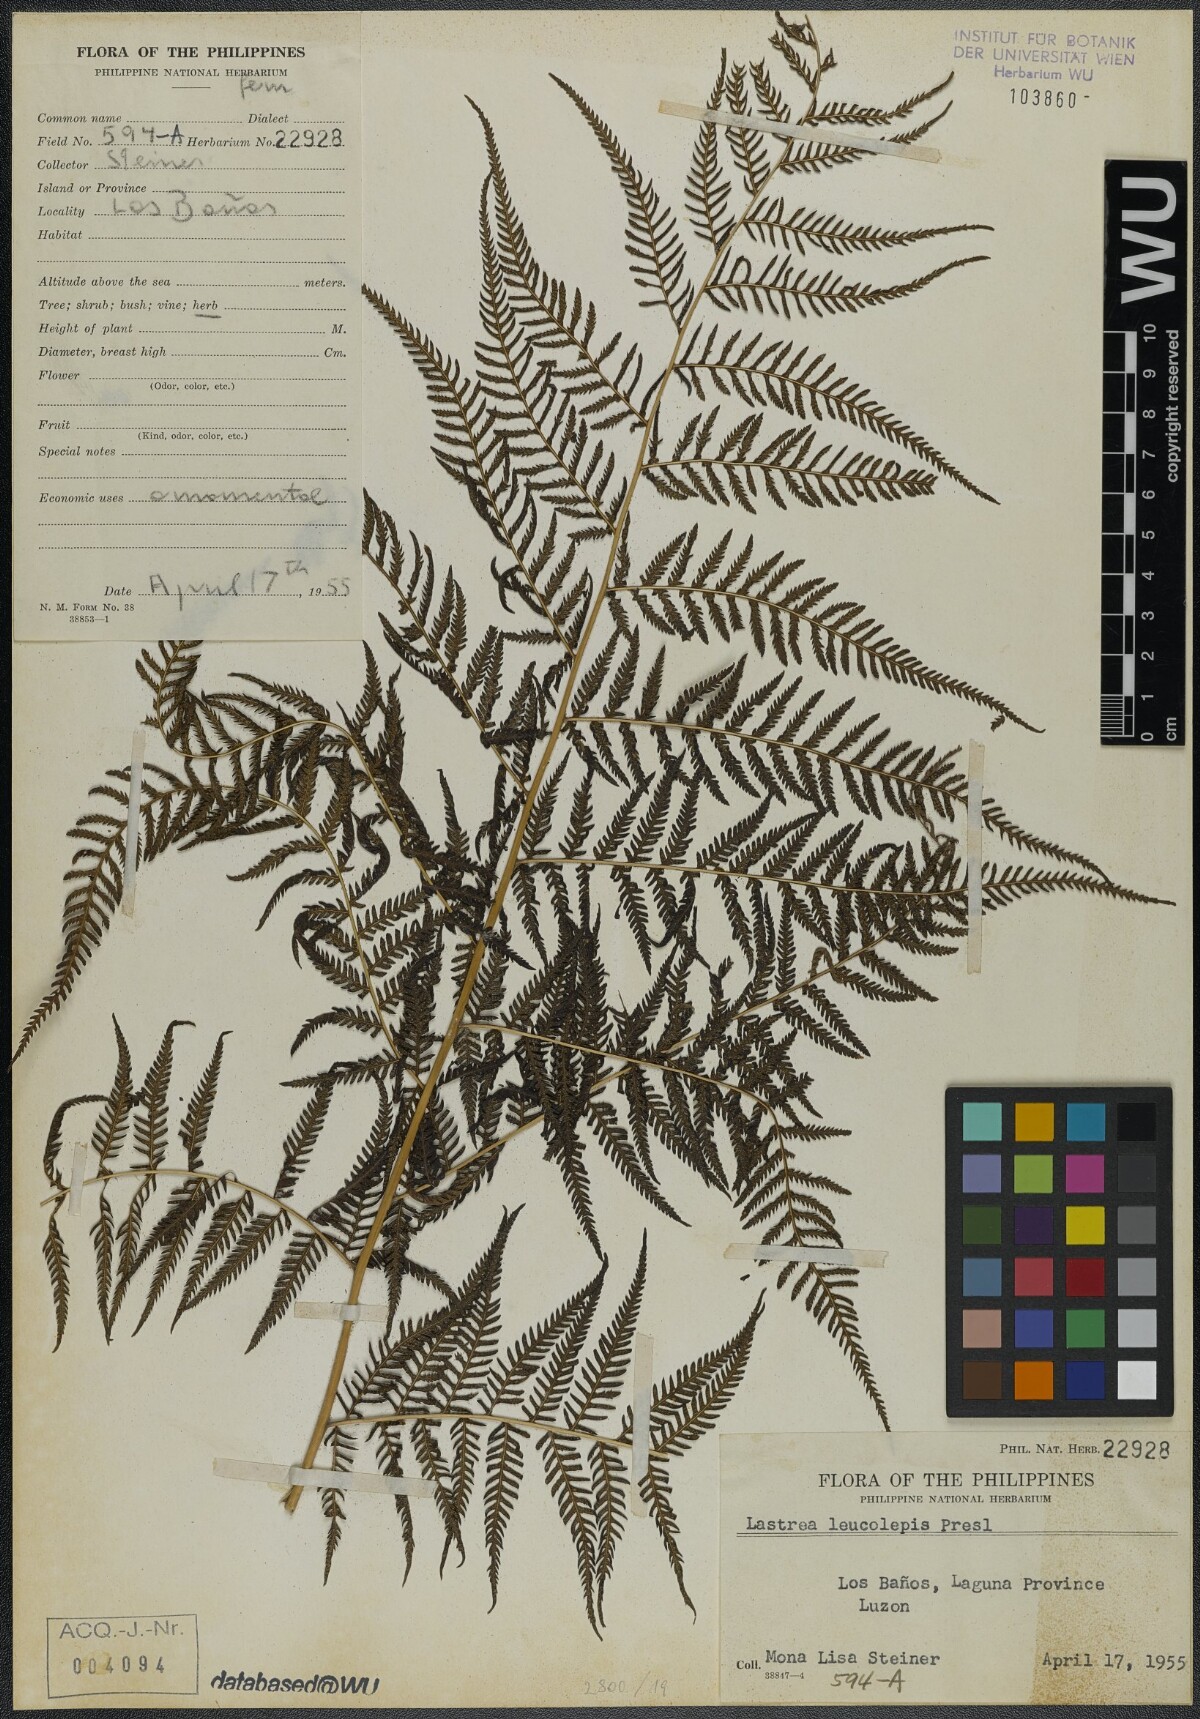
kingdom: Plantae
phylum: Tracheophyta
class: Polypodiopsida
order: Polypodiales
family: Thelypteridaceae
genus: Macrothelypteris
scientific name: Macrothelypteris polypodioides
